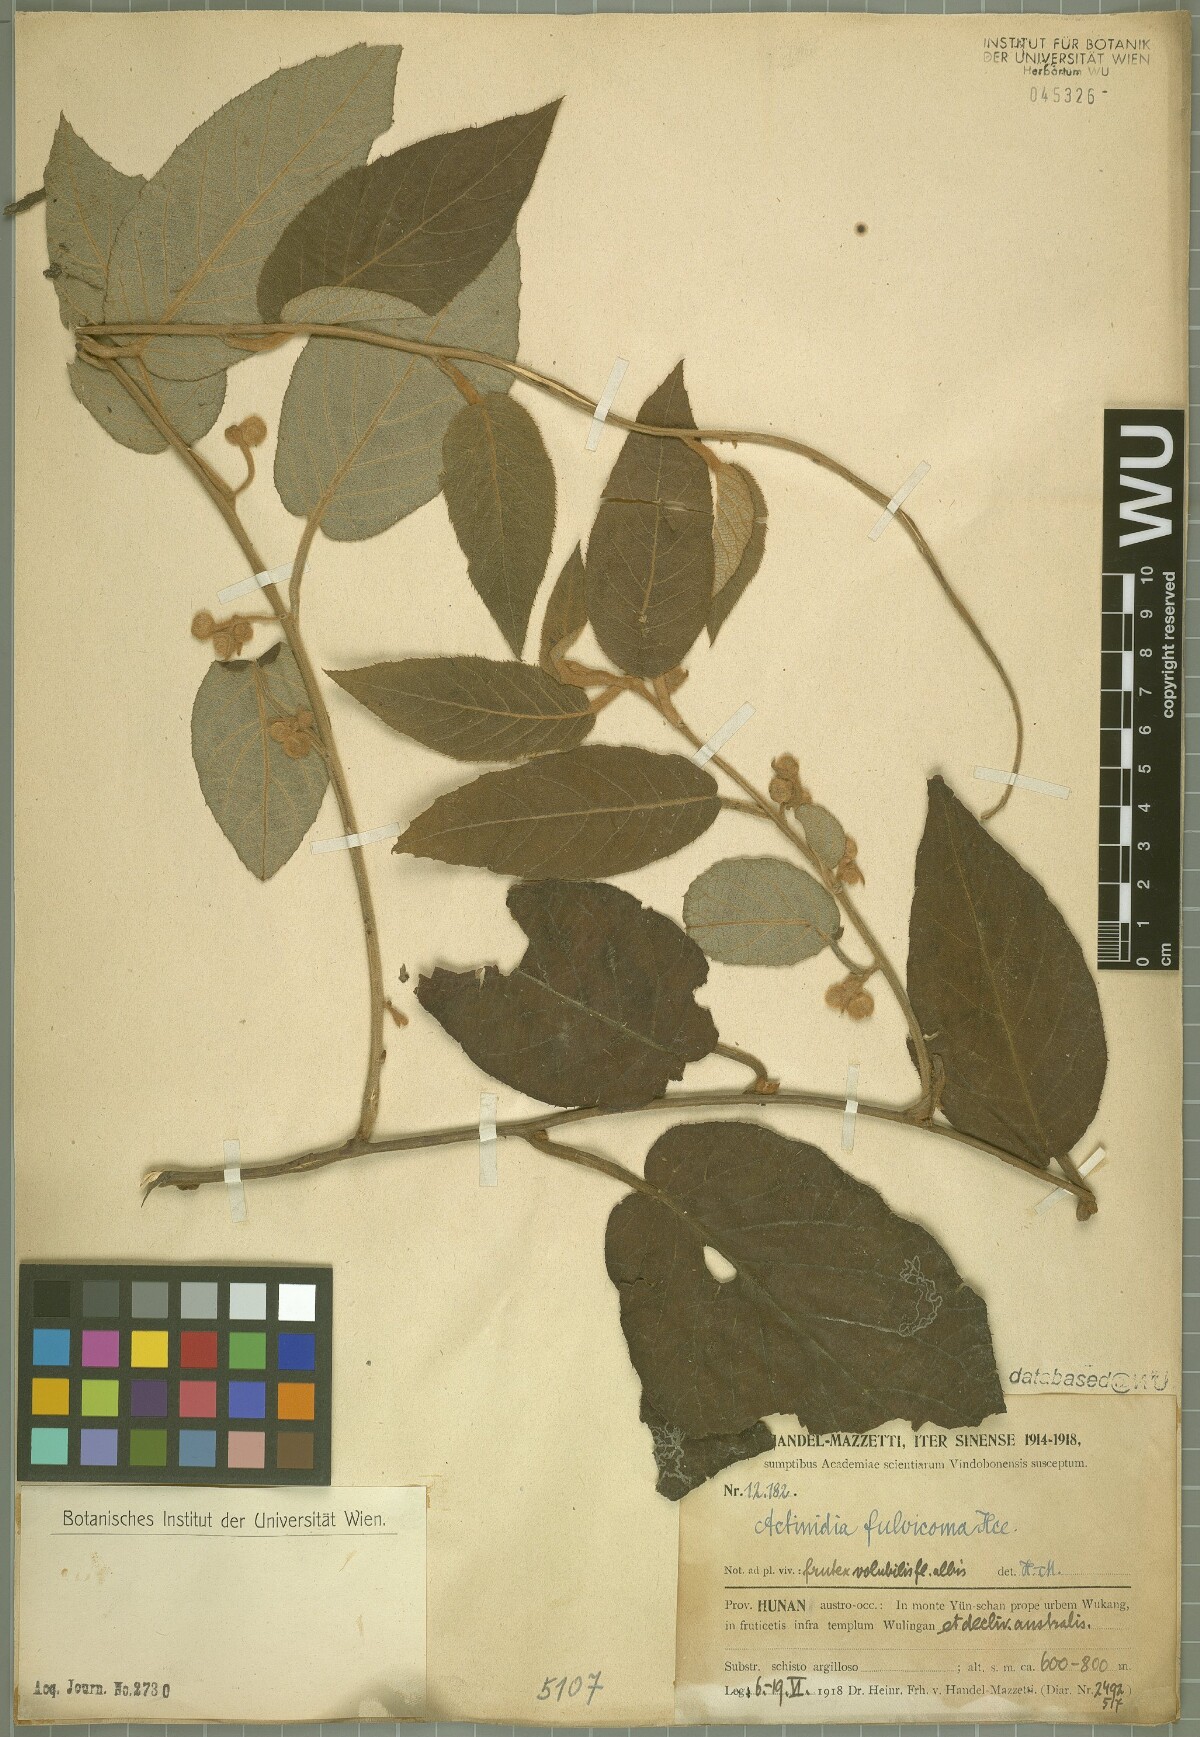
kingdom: Plantae
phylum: Tracheophyta
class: Magnoliopsida
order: Ericales
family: Actinidiaceae
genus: Actinidia
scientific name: Actinidia fulvicoma
